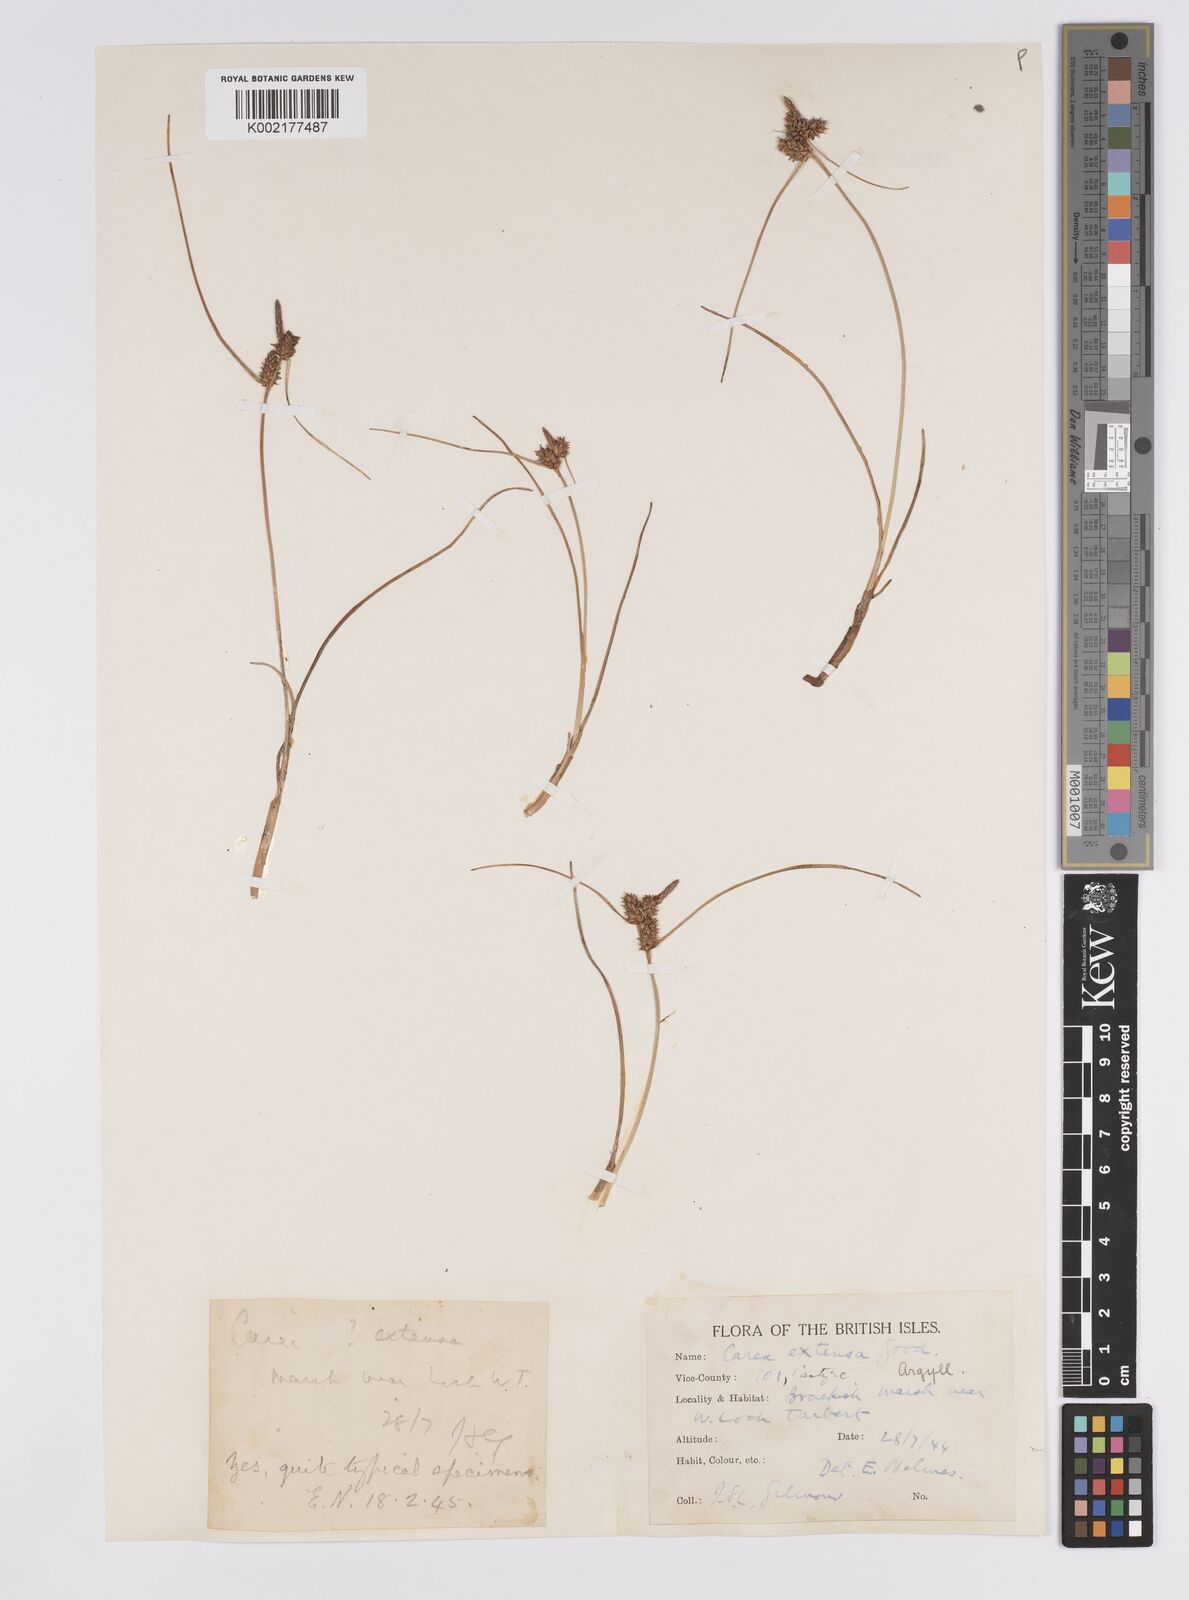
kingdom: Plantae
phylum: Tracheophyta
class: Liliopsida
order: Poales
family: Cyperaceae
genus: Carex
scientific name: Carex extensa
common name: Long-bracted sedge
